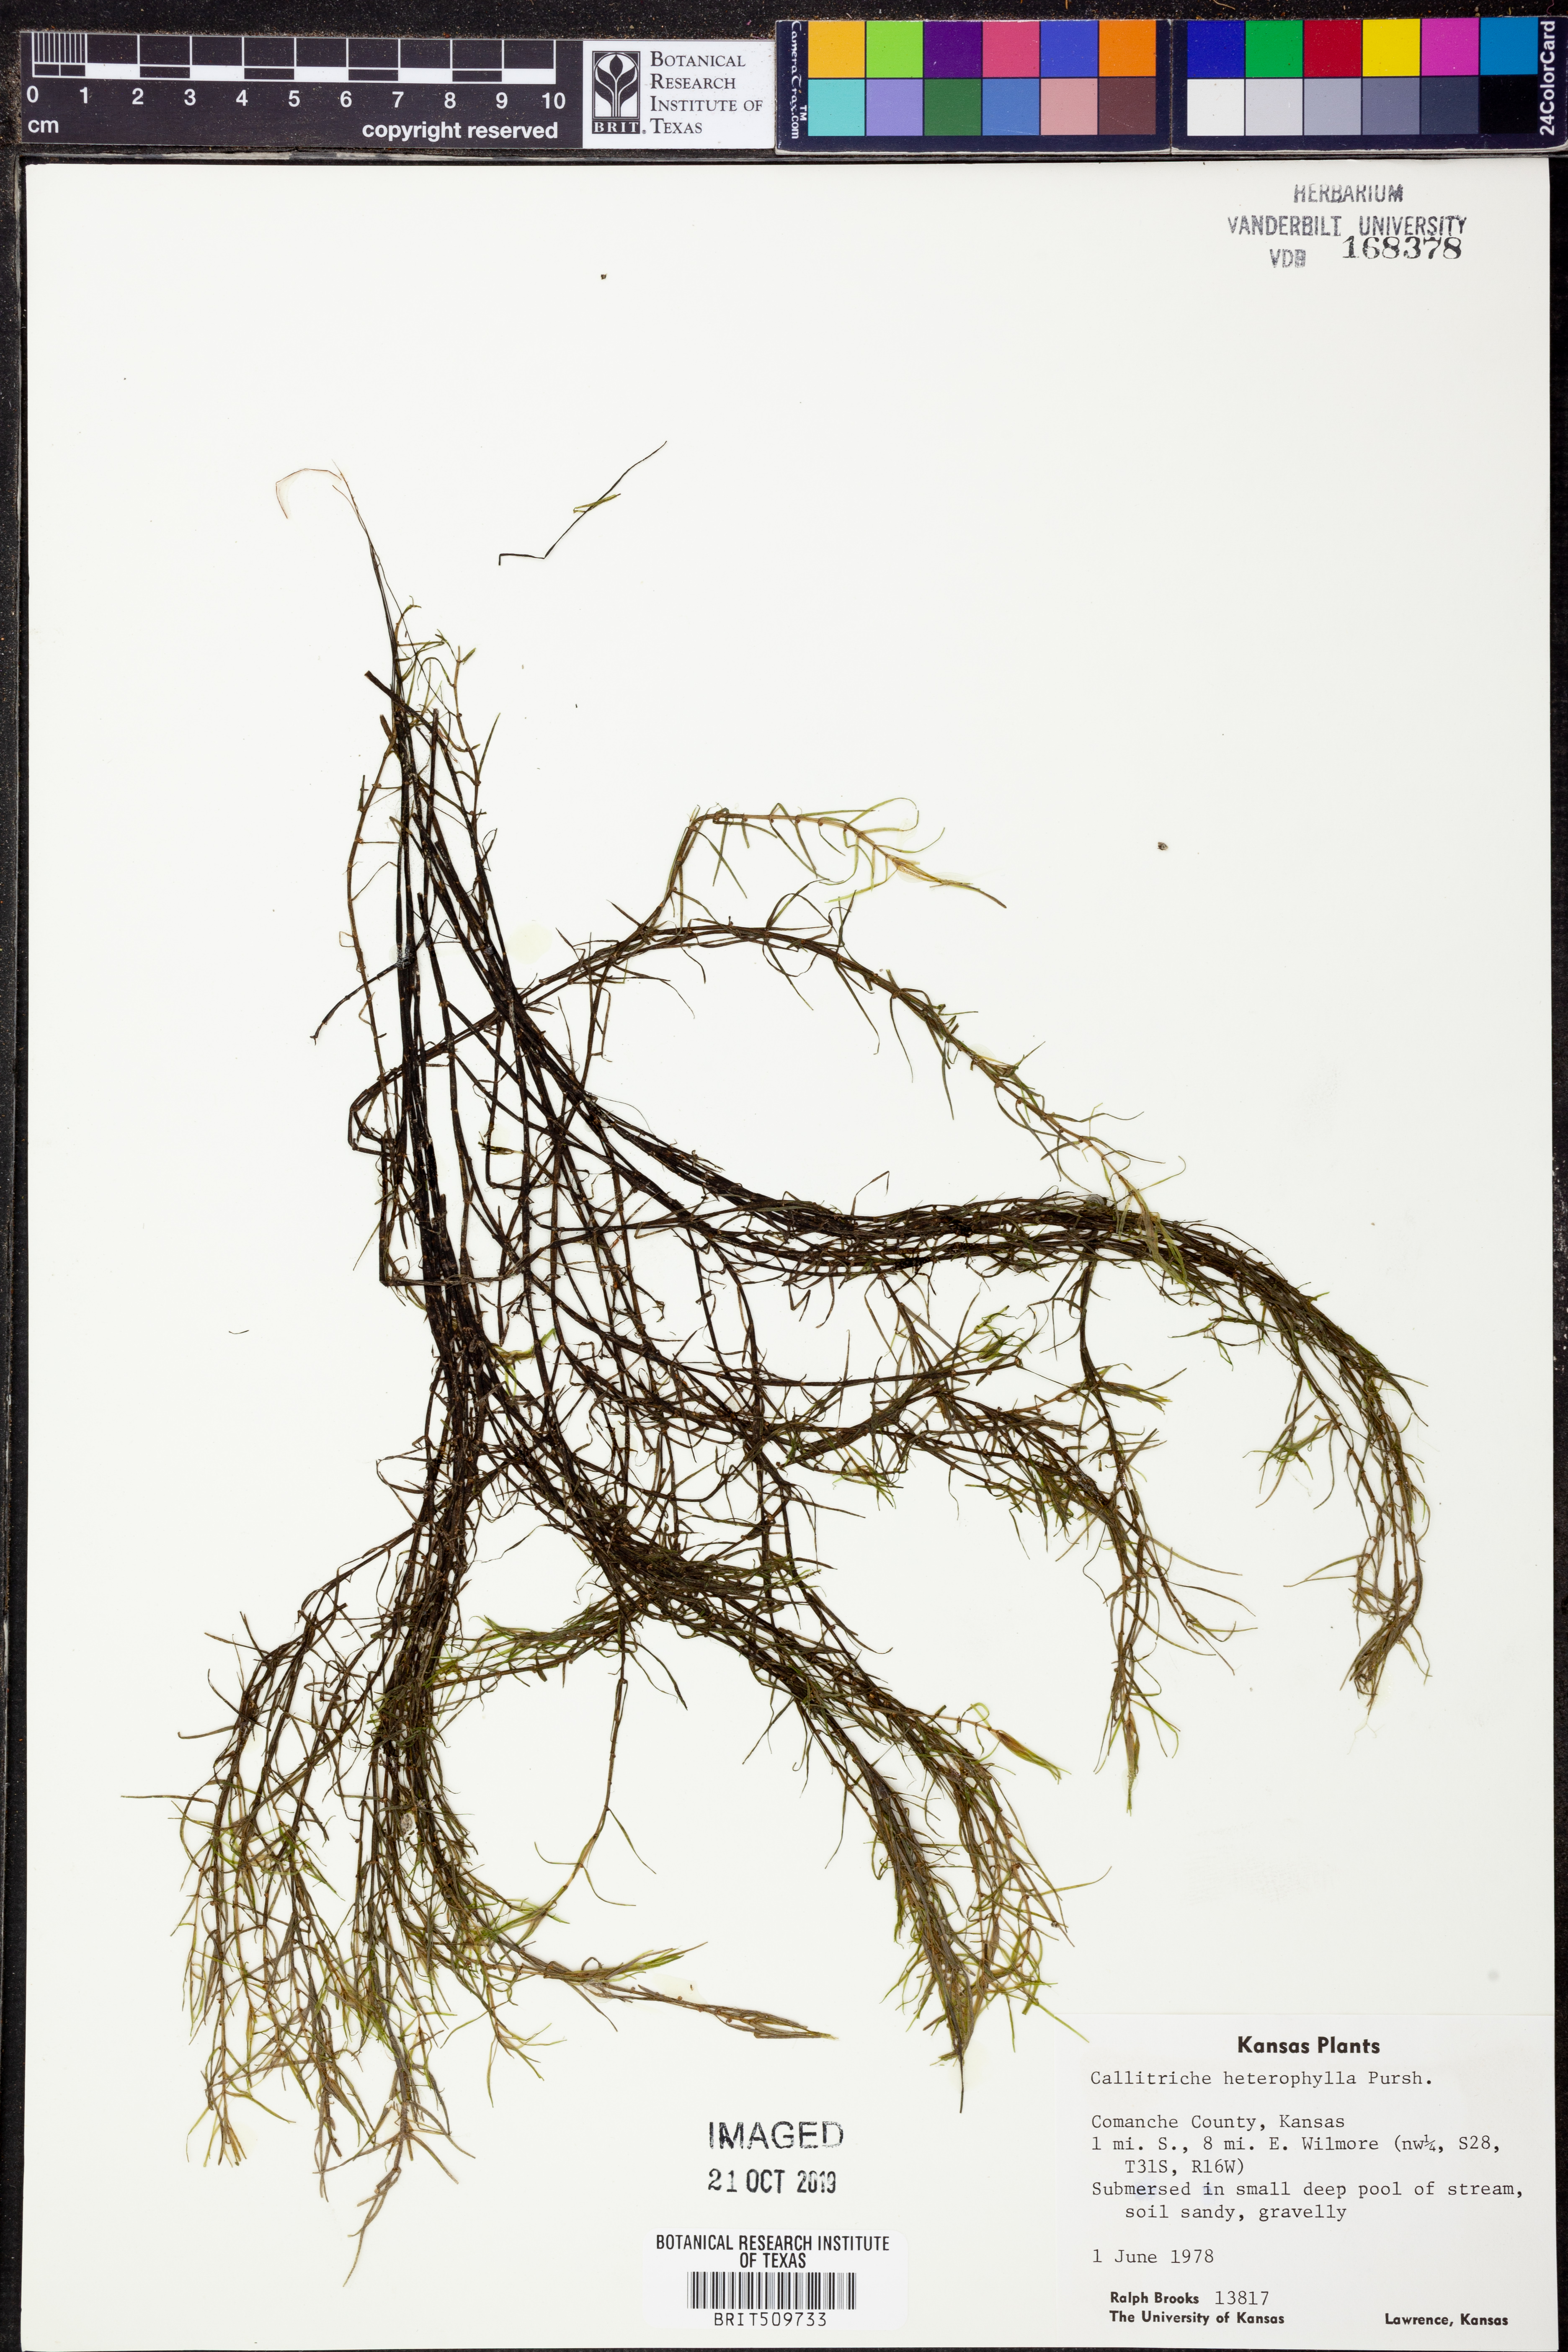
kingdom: Plantae
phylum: Tracheophyta
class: Magnoliopsida
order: Lamiales
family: Plantaginaceae
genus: Callitriche
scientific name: Callitriche heterophylla
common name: Two-headed water-starwort
